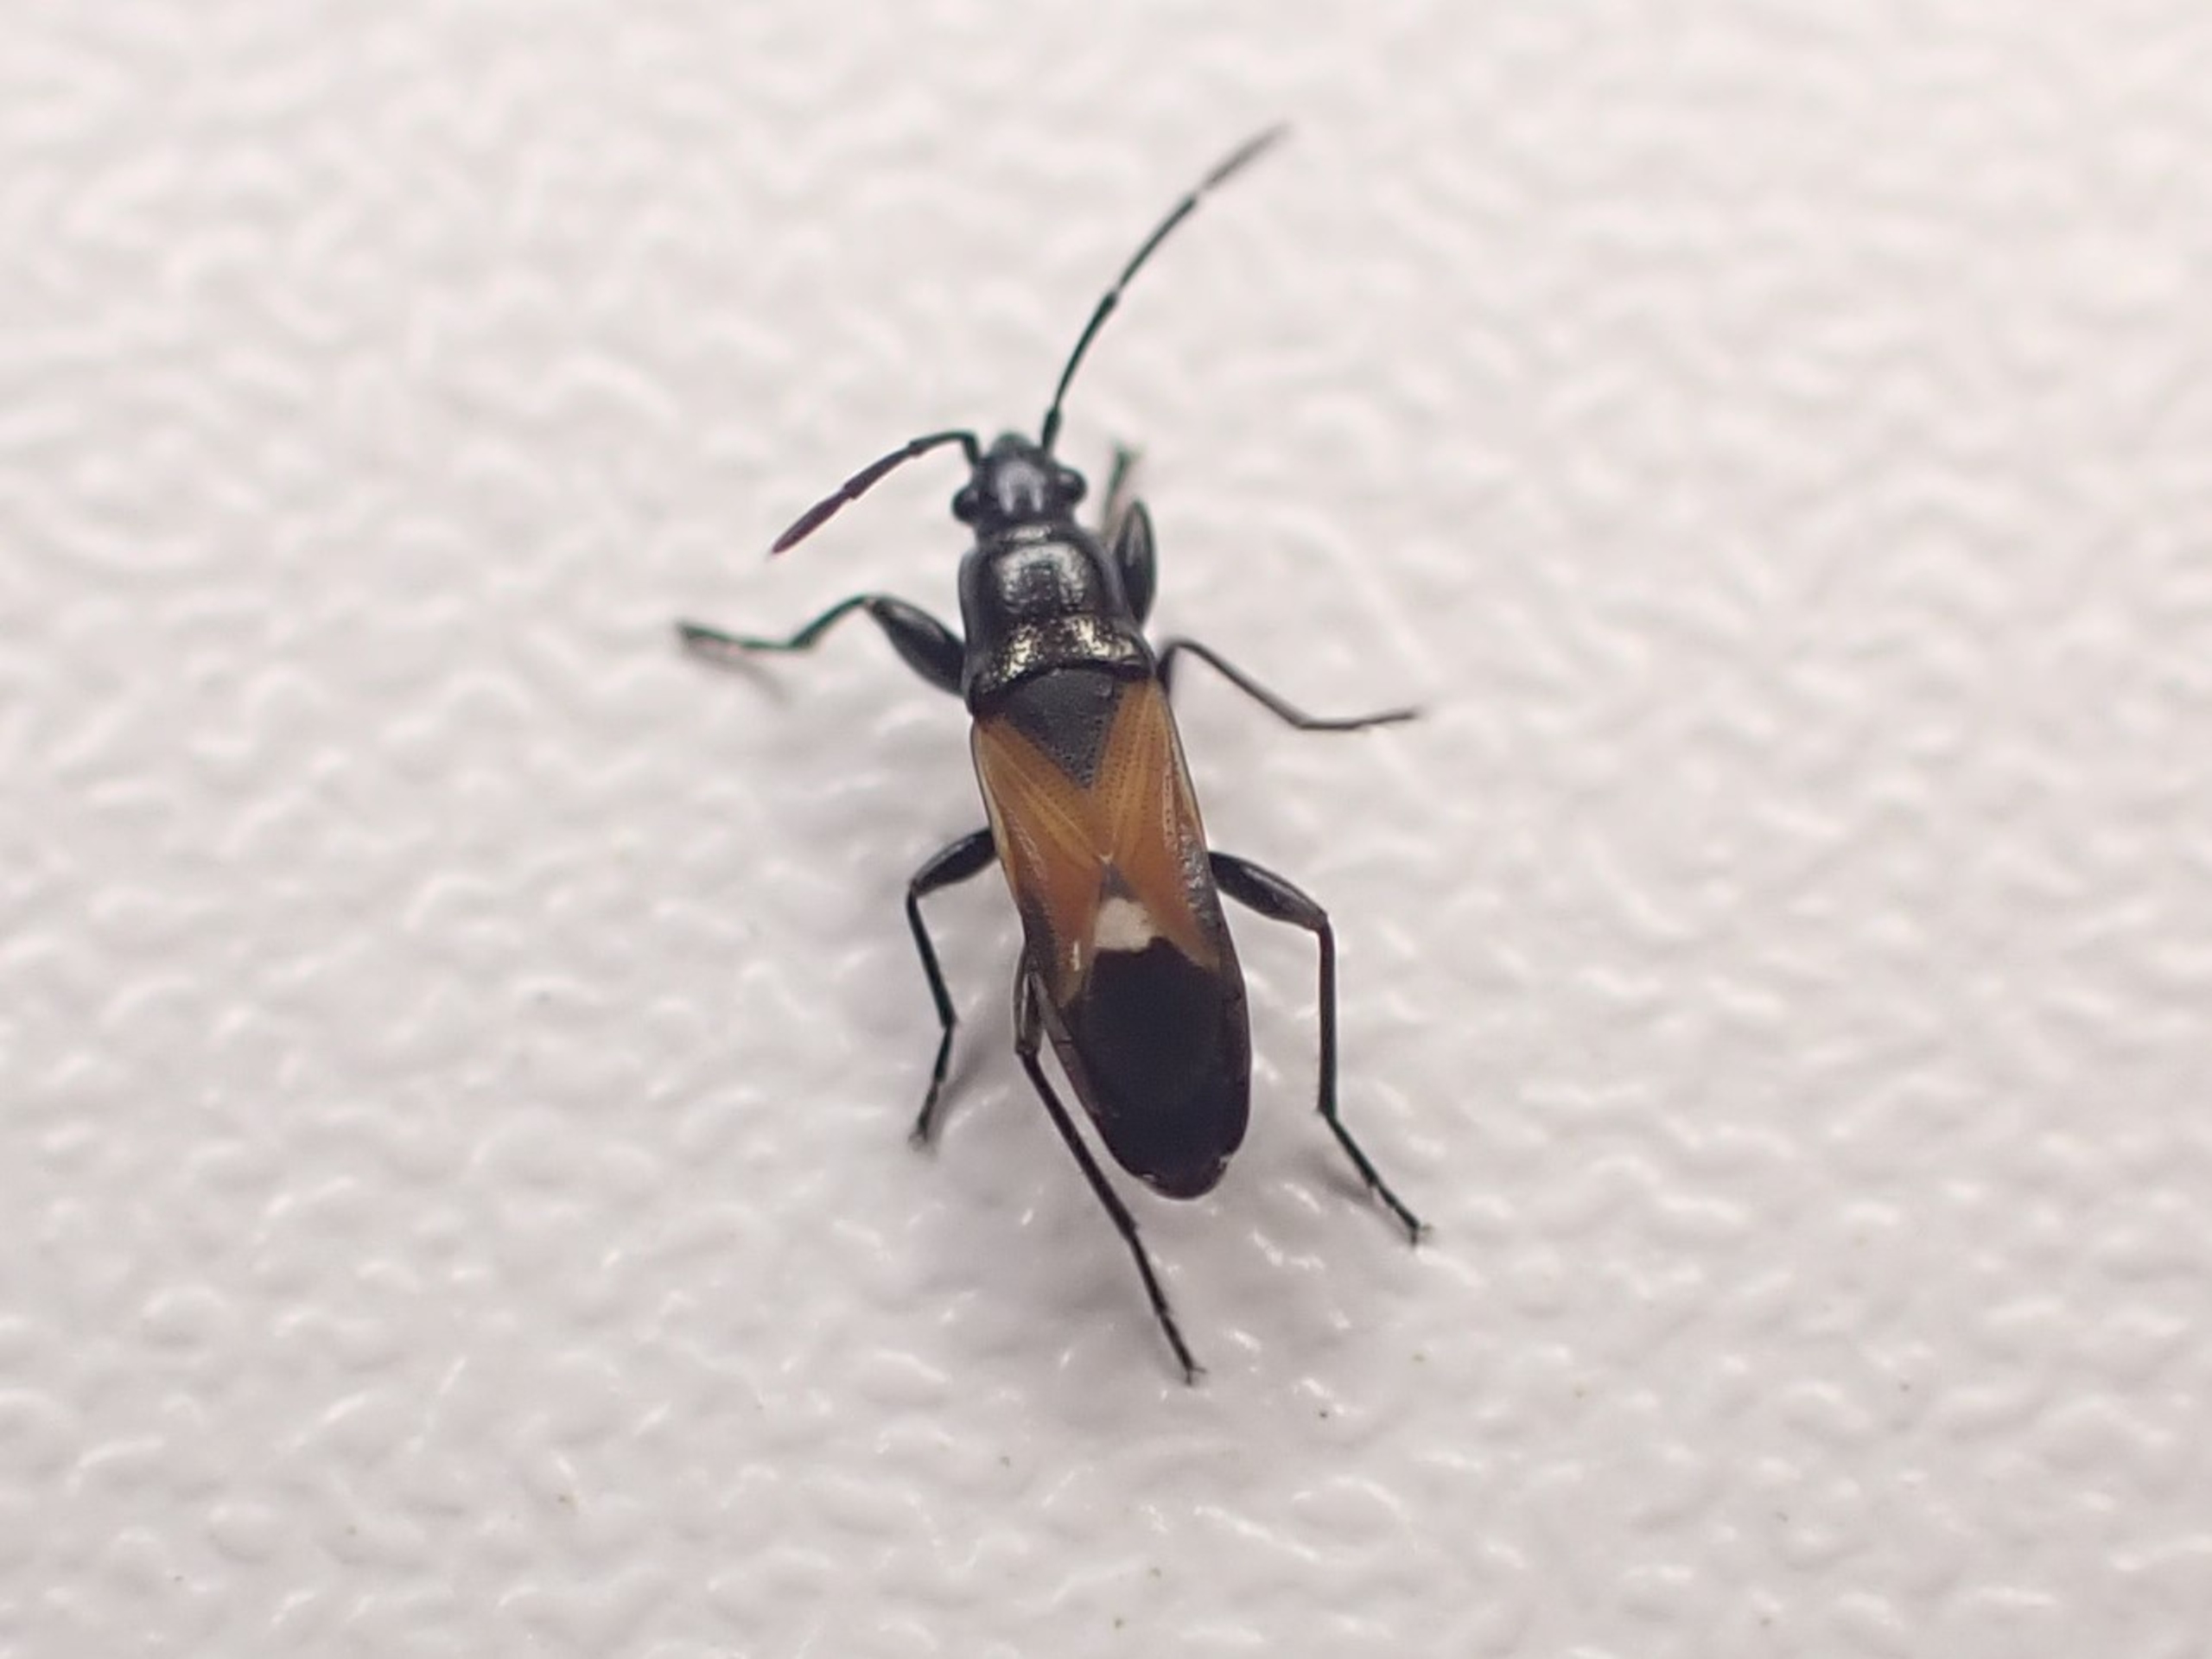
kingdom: Animalia
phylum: Arthropoda
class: Insecta
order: Hemiptera
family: Rhyparochromidae
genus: Pterotmetus
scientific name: Pterotmetus staphyliniformis
